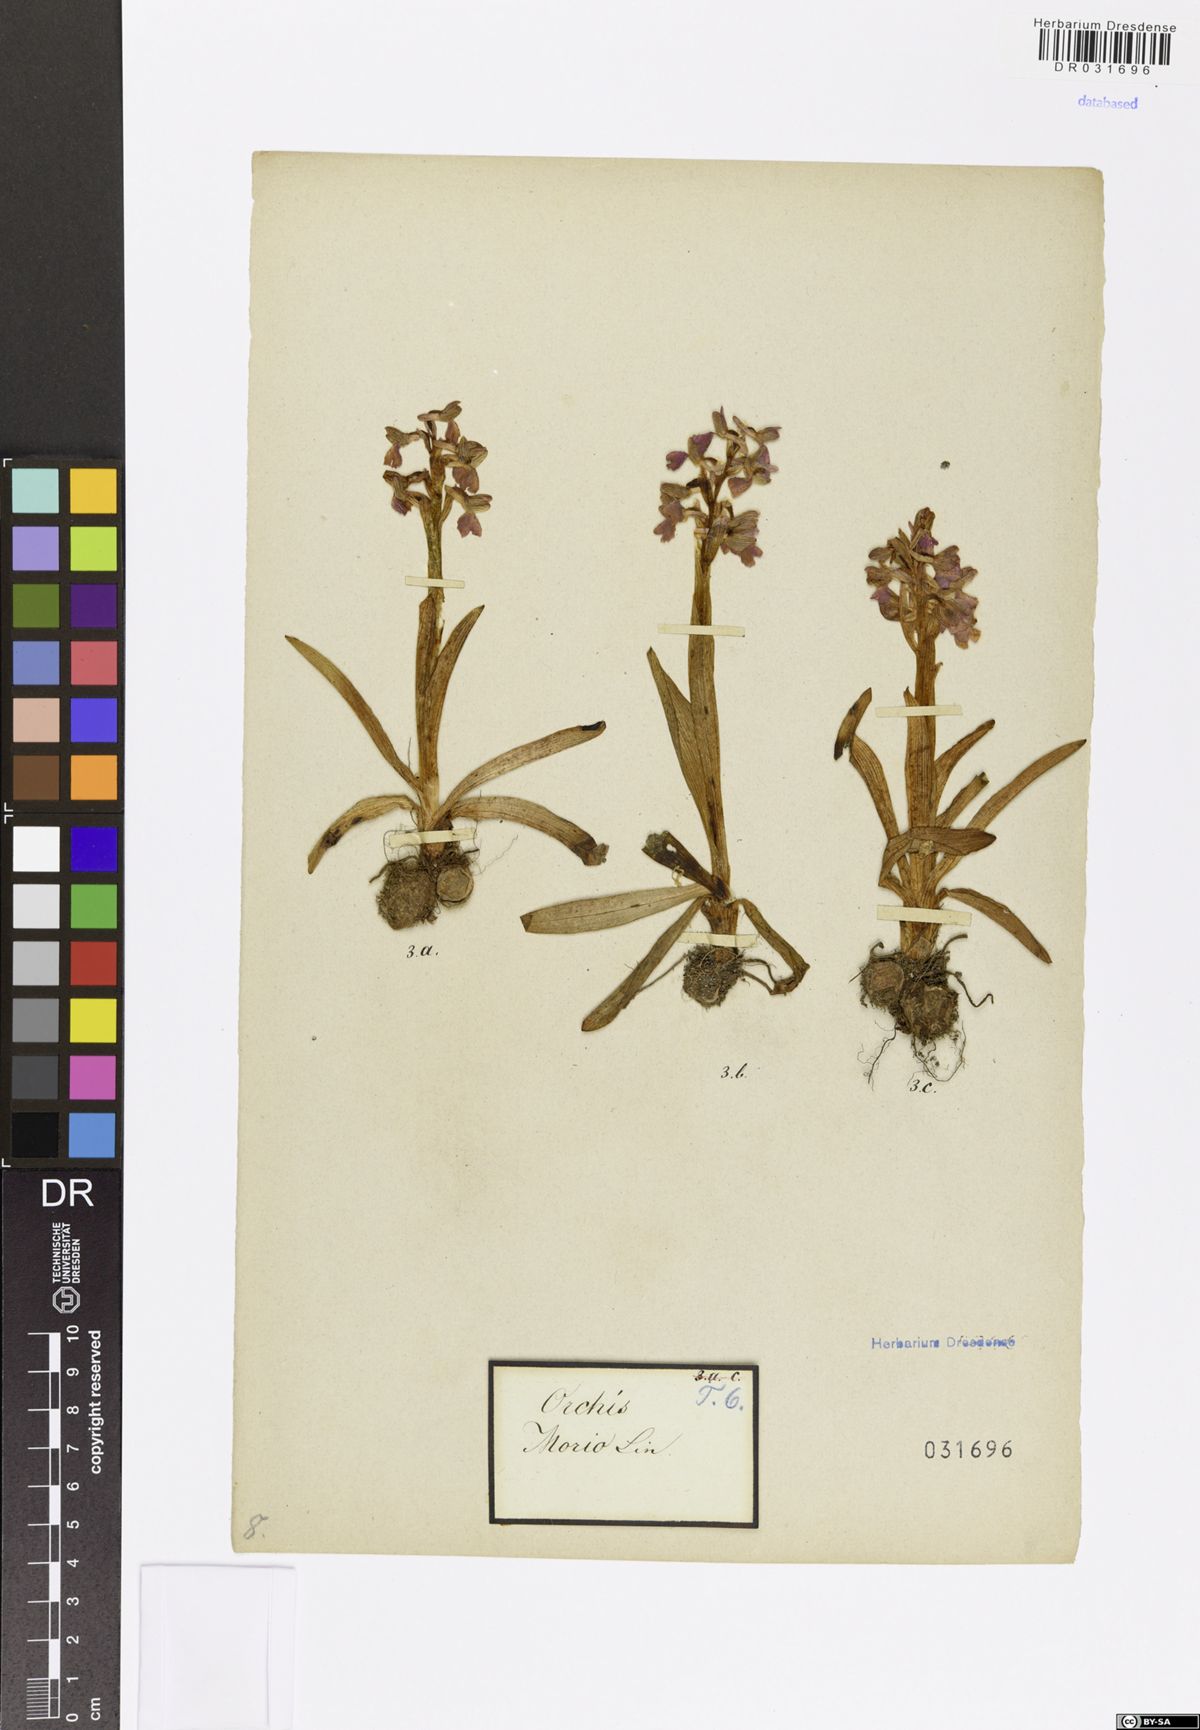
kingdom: Plantae
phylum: Tracheophyta
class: Liliopsida
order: Asparagales
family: Orchidaceae
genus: Anacamptis
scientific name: Anacamptis morio
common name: Green-winged orchid
